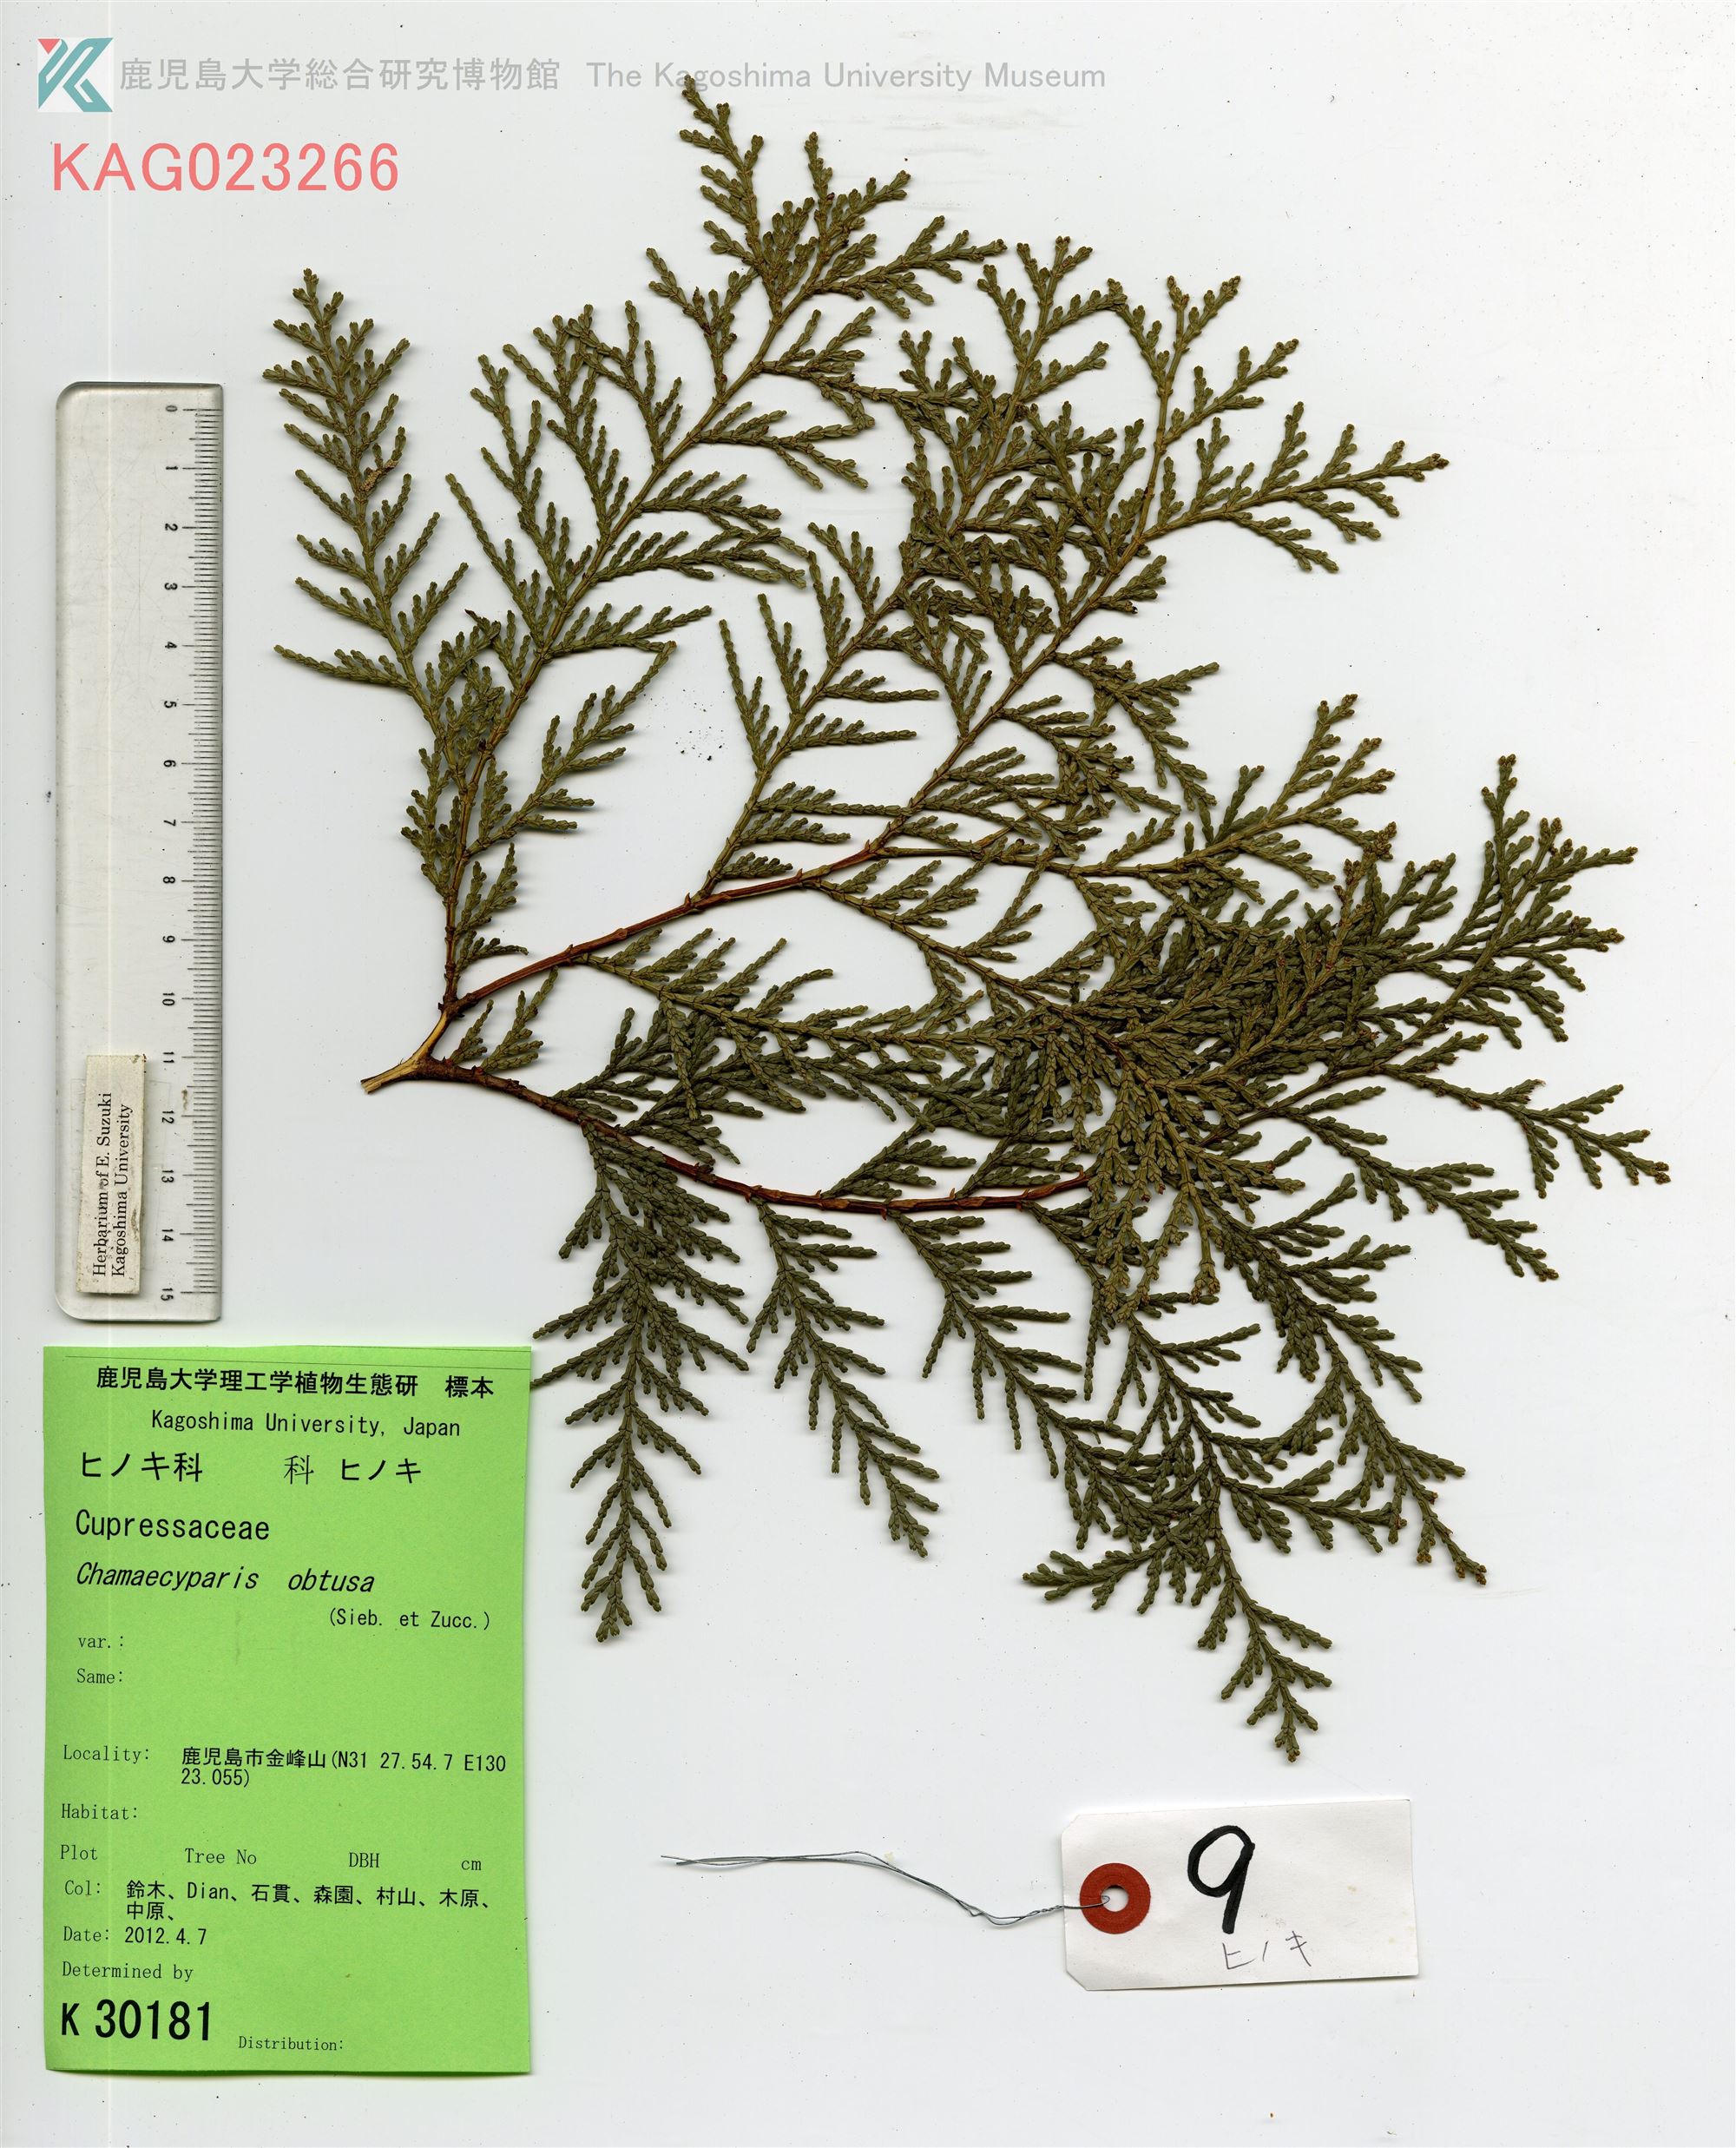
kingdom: Plantae
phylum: Tracheophyta
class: Pinopsida
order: Pinales
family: Cupressaceae
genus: Chamaecyparis
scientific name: Chamaecyparis obtusa
